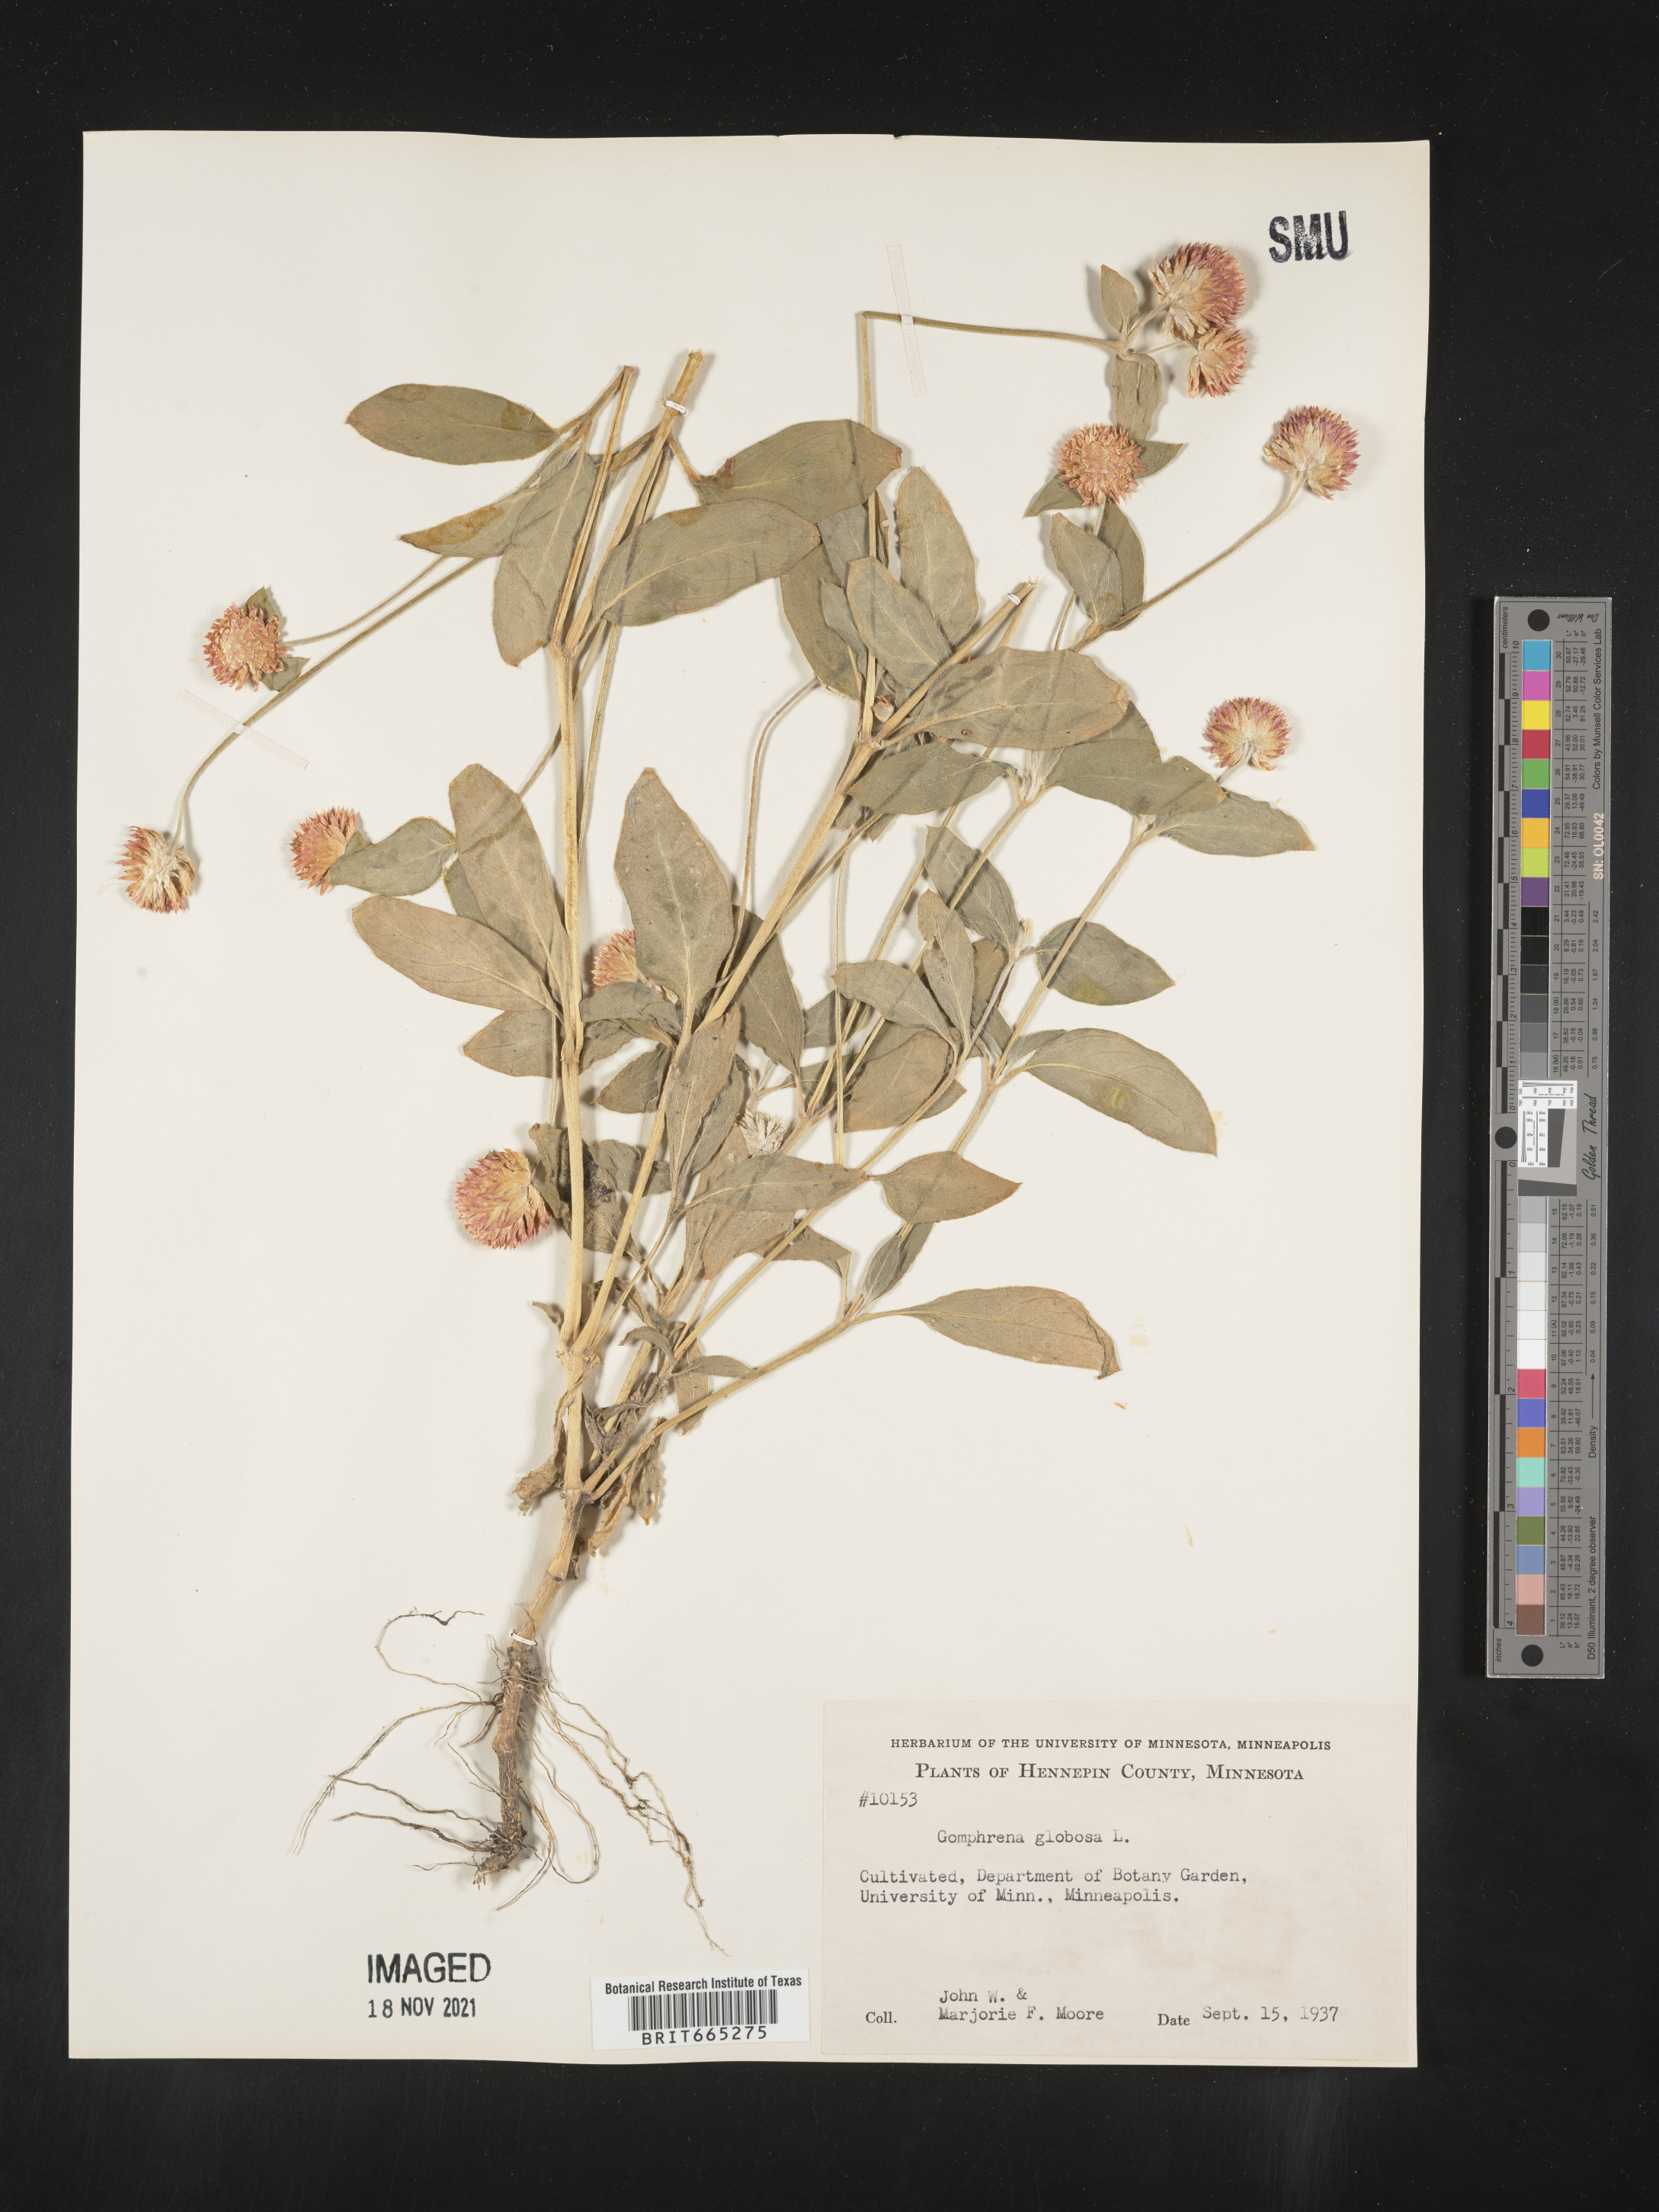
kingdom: Plantae
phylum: Tracheophyta
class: Magnoliopsida
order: Caryophyllales
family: Amaranthaceae
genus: Gomphrena
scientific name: Gomphrena
